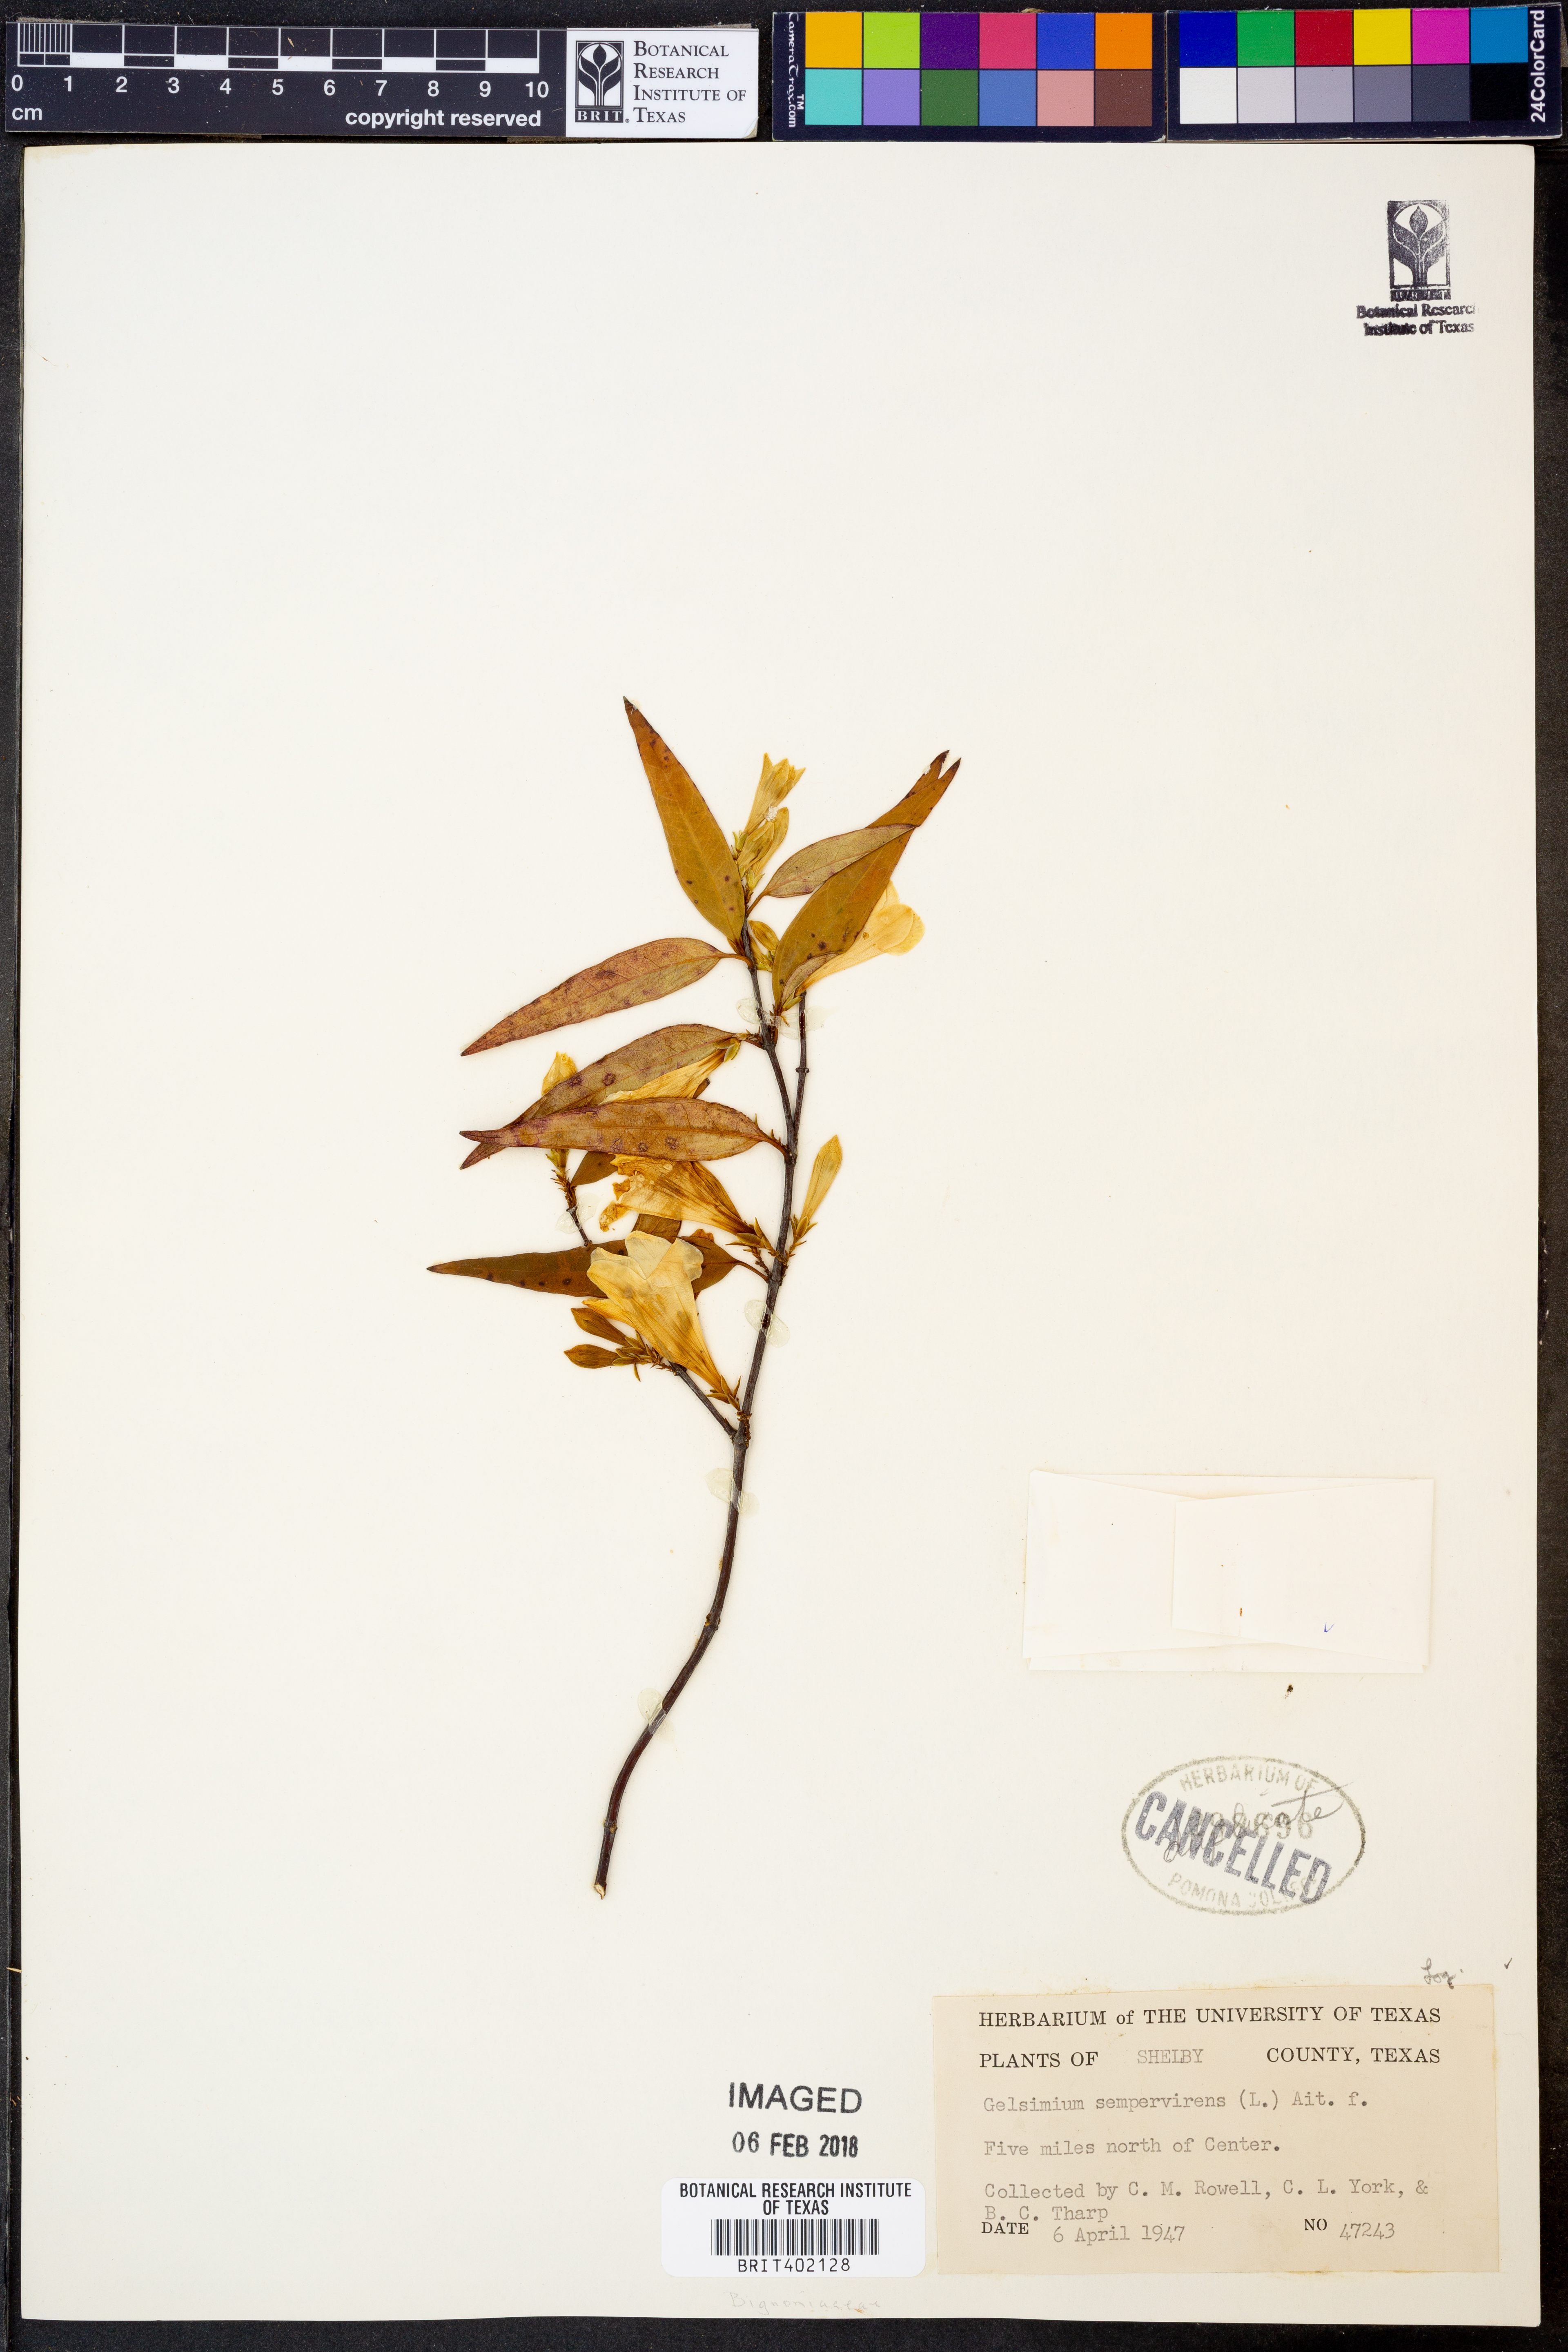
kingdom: Plantae
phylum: Tracheophyta
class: Magnoliopsida
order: Gentianales
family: Gelsemiaceae
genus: Gelsemium
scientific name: Gelsemium sempervirens
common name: Carolina-jasmine
